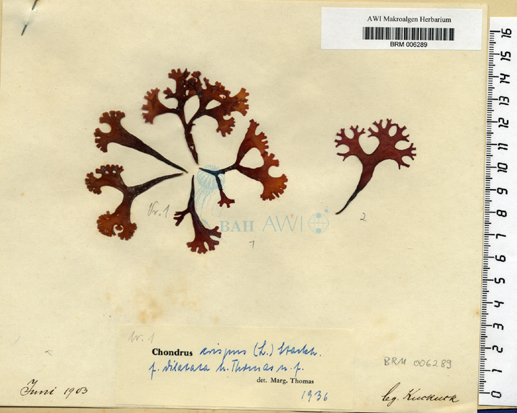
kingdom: Plantae
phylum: Rhodophyta
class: Florideophyceae
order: Gigartinales
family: Gigartinaceae
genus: Chondrus
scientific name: Chondrus crispus
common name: Carrageen
